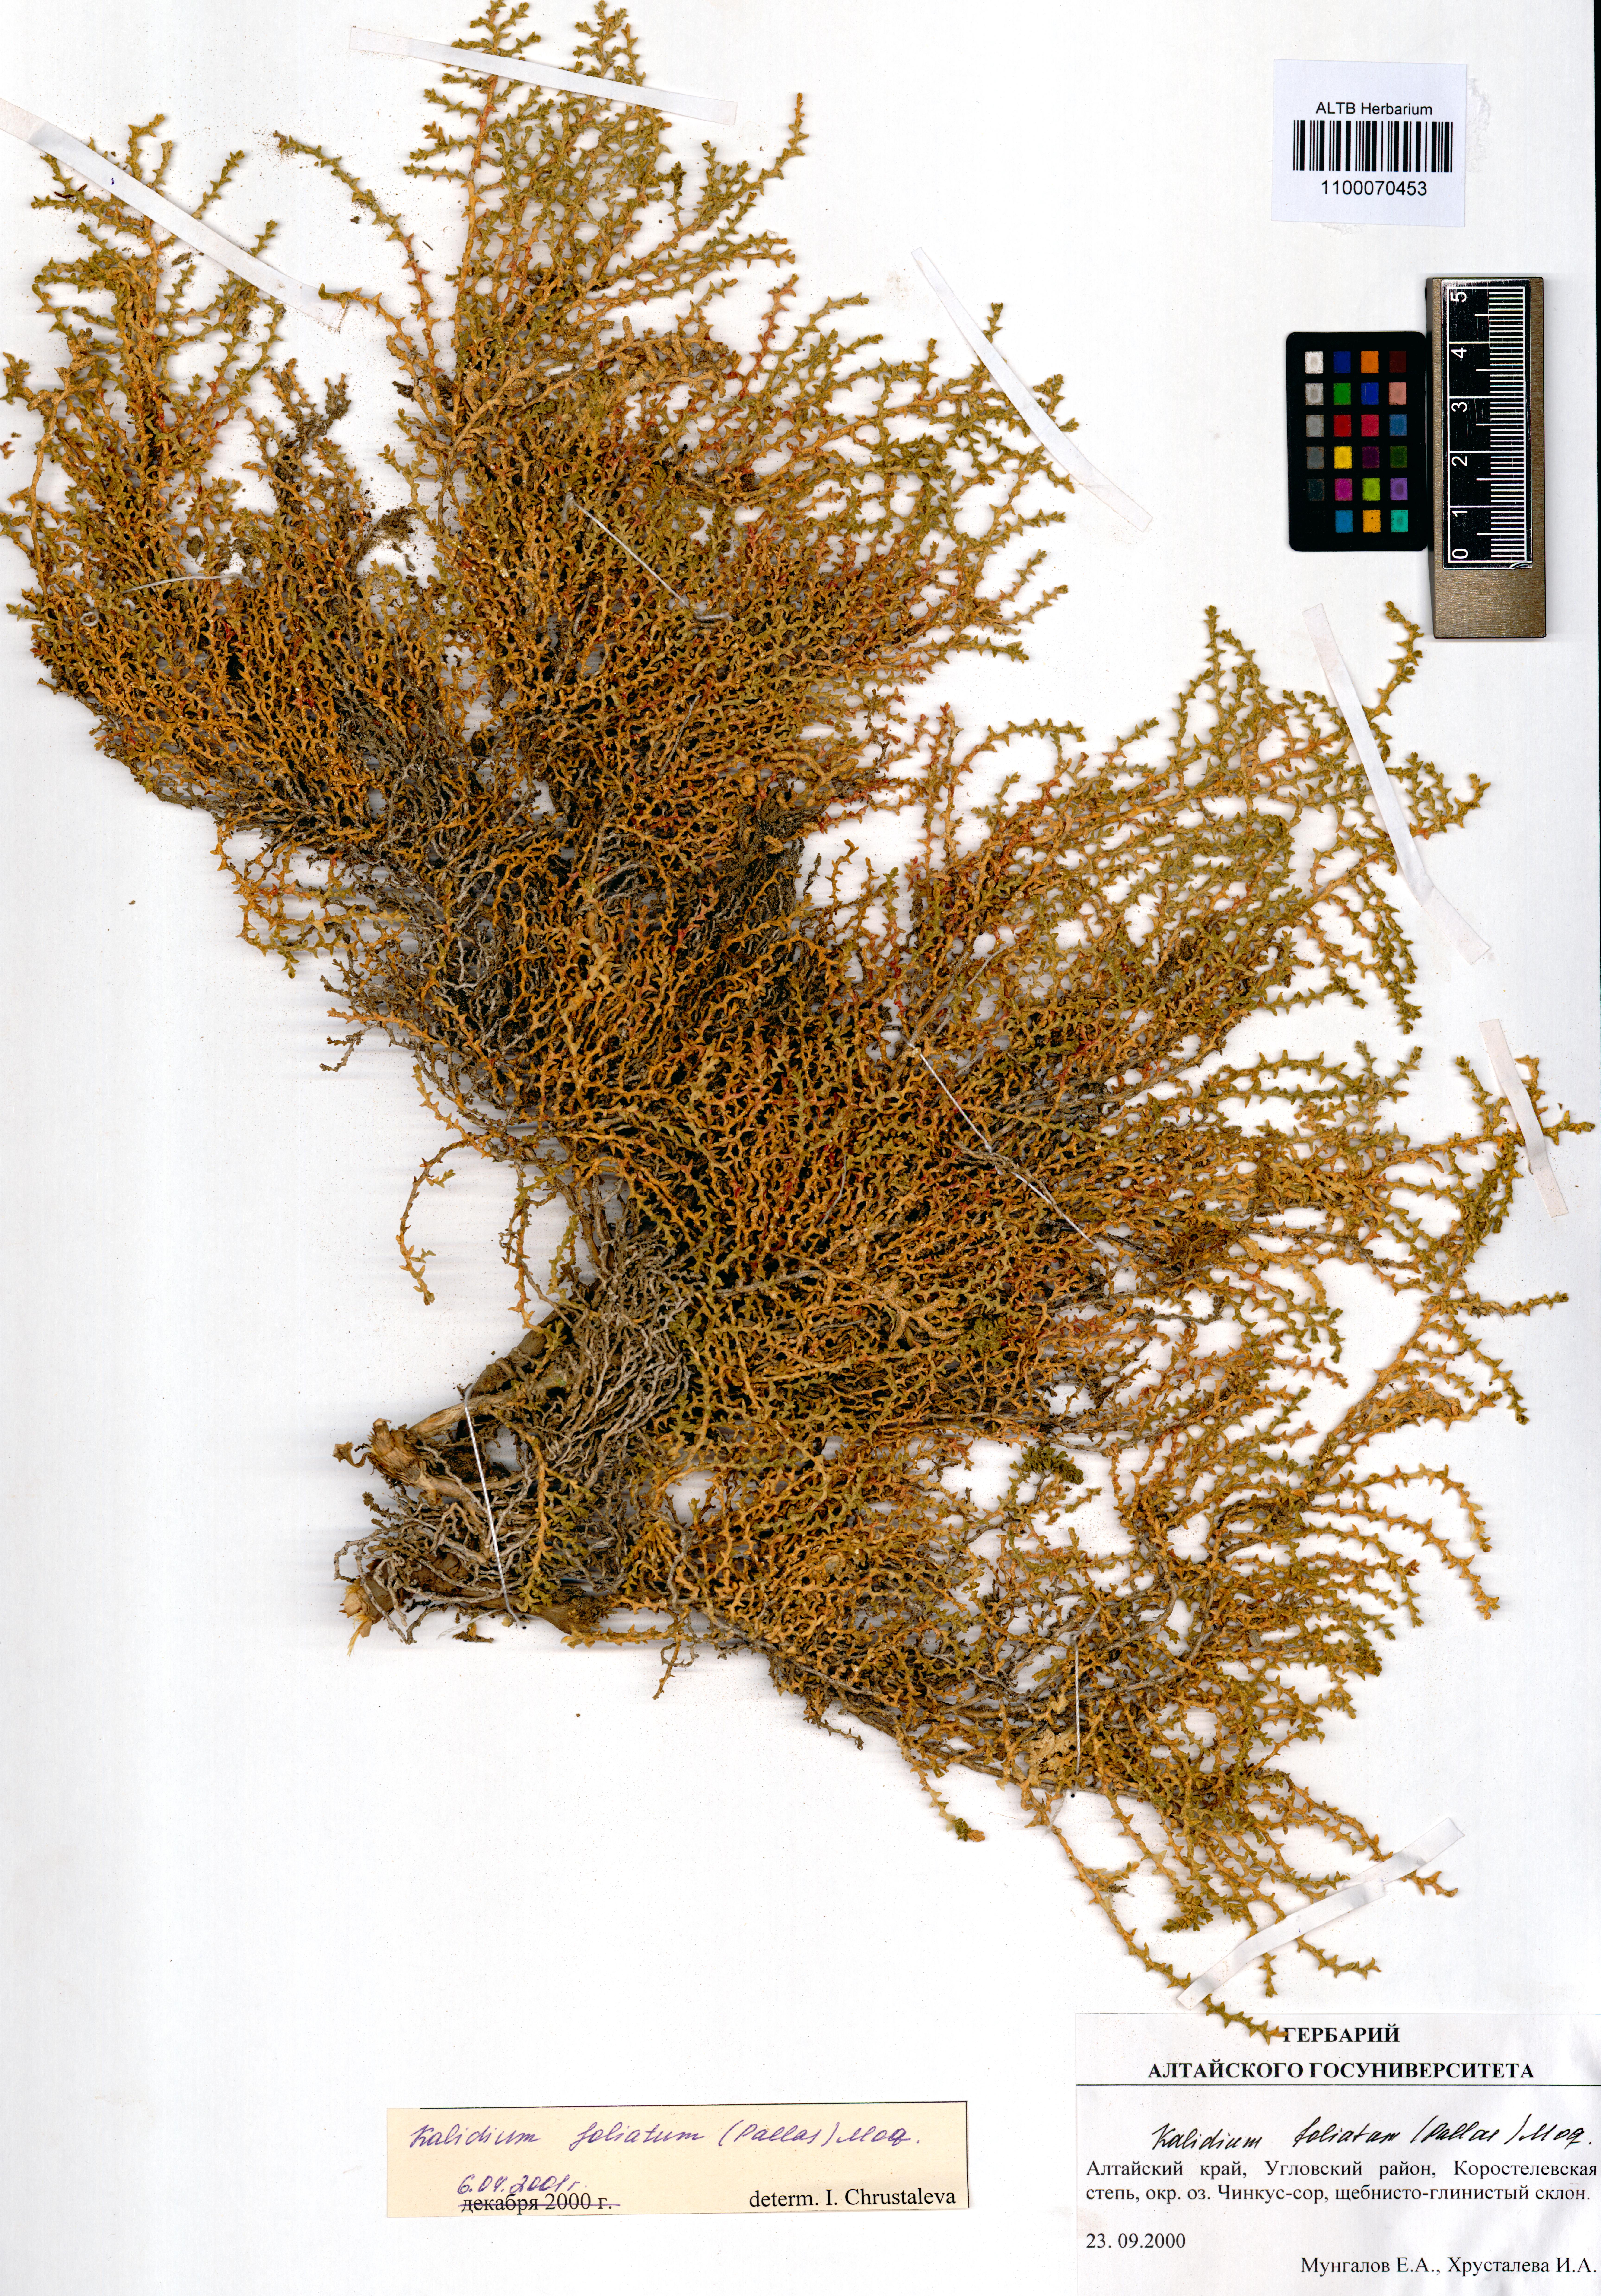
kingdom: Plantae
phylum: Tracheophyta
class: Magnoliopsida
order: Caryophyllales
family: Amaranthaceae
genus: Kalidium
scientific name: Kalidium foliatum
